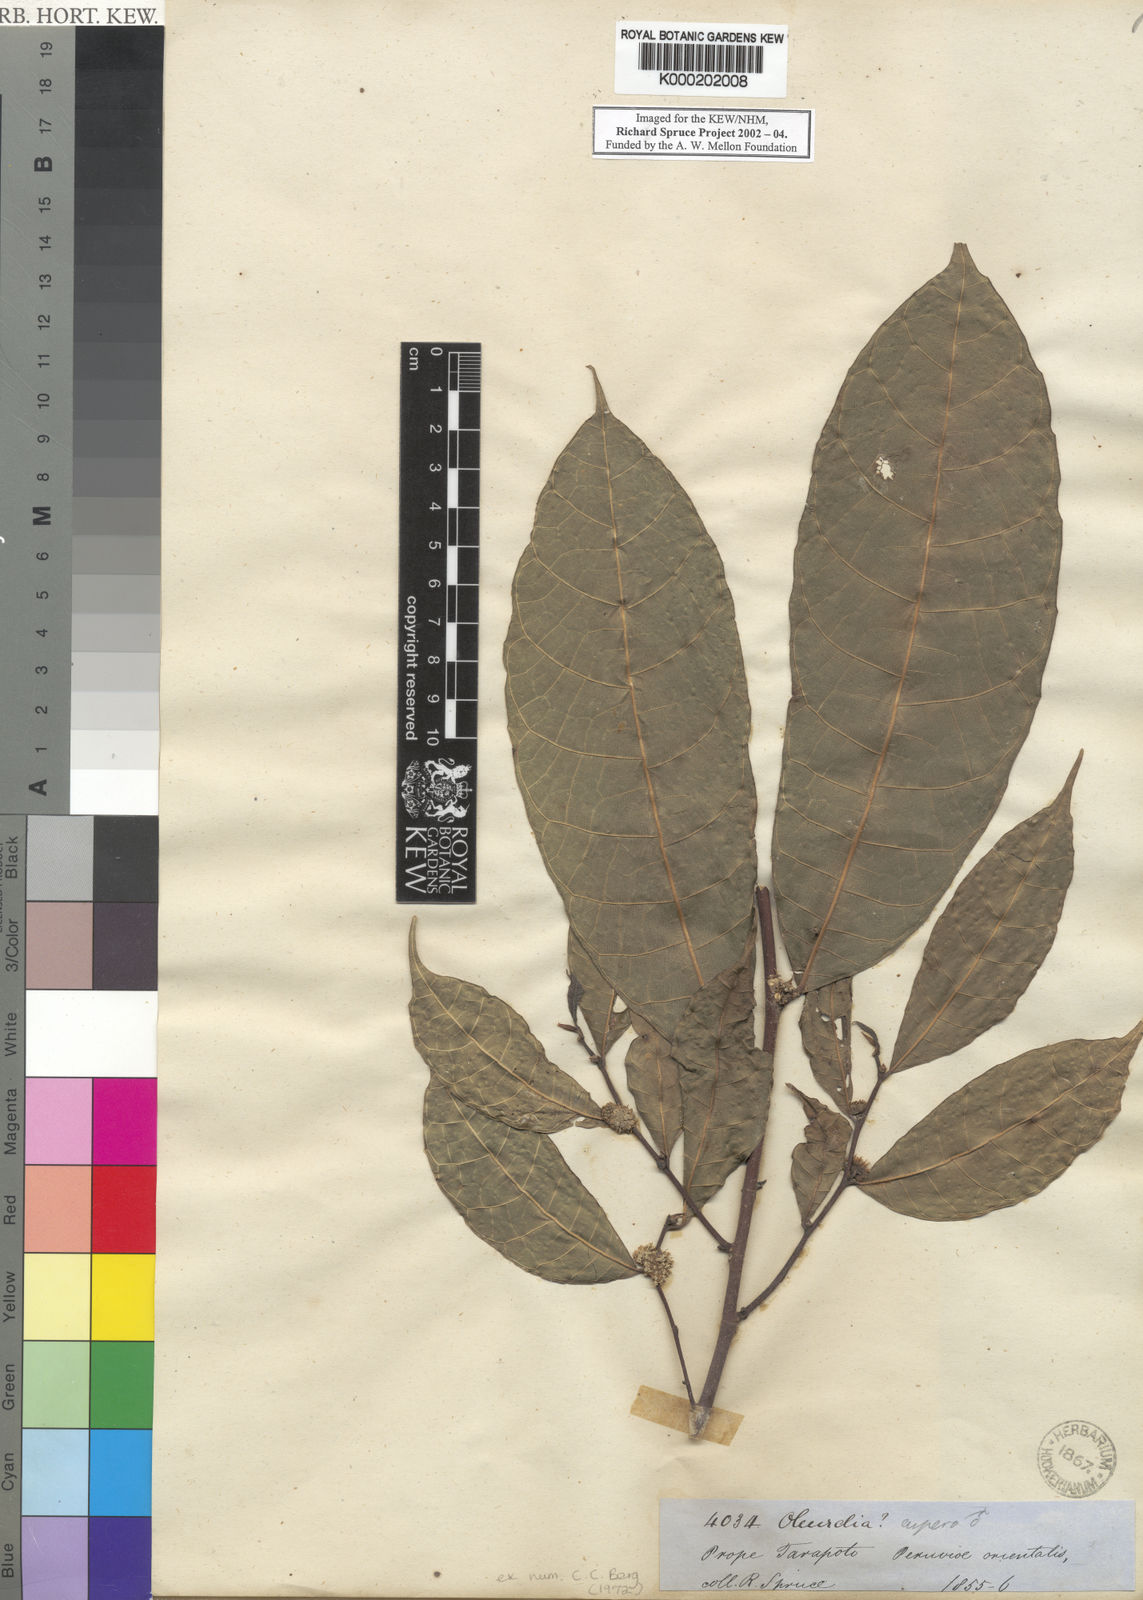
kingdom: Plantae
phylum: Tracheophyta
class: Magnoliopsida
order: Rosales
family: Moraceae
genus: Olmedia
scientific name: Olmedia aspera
